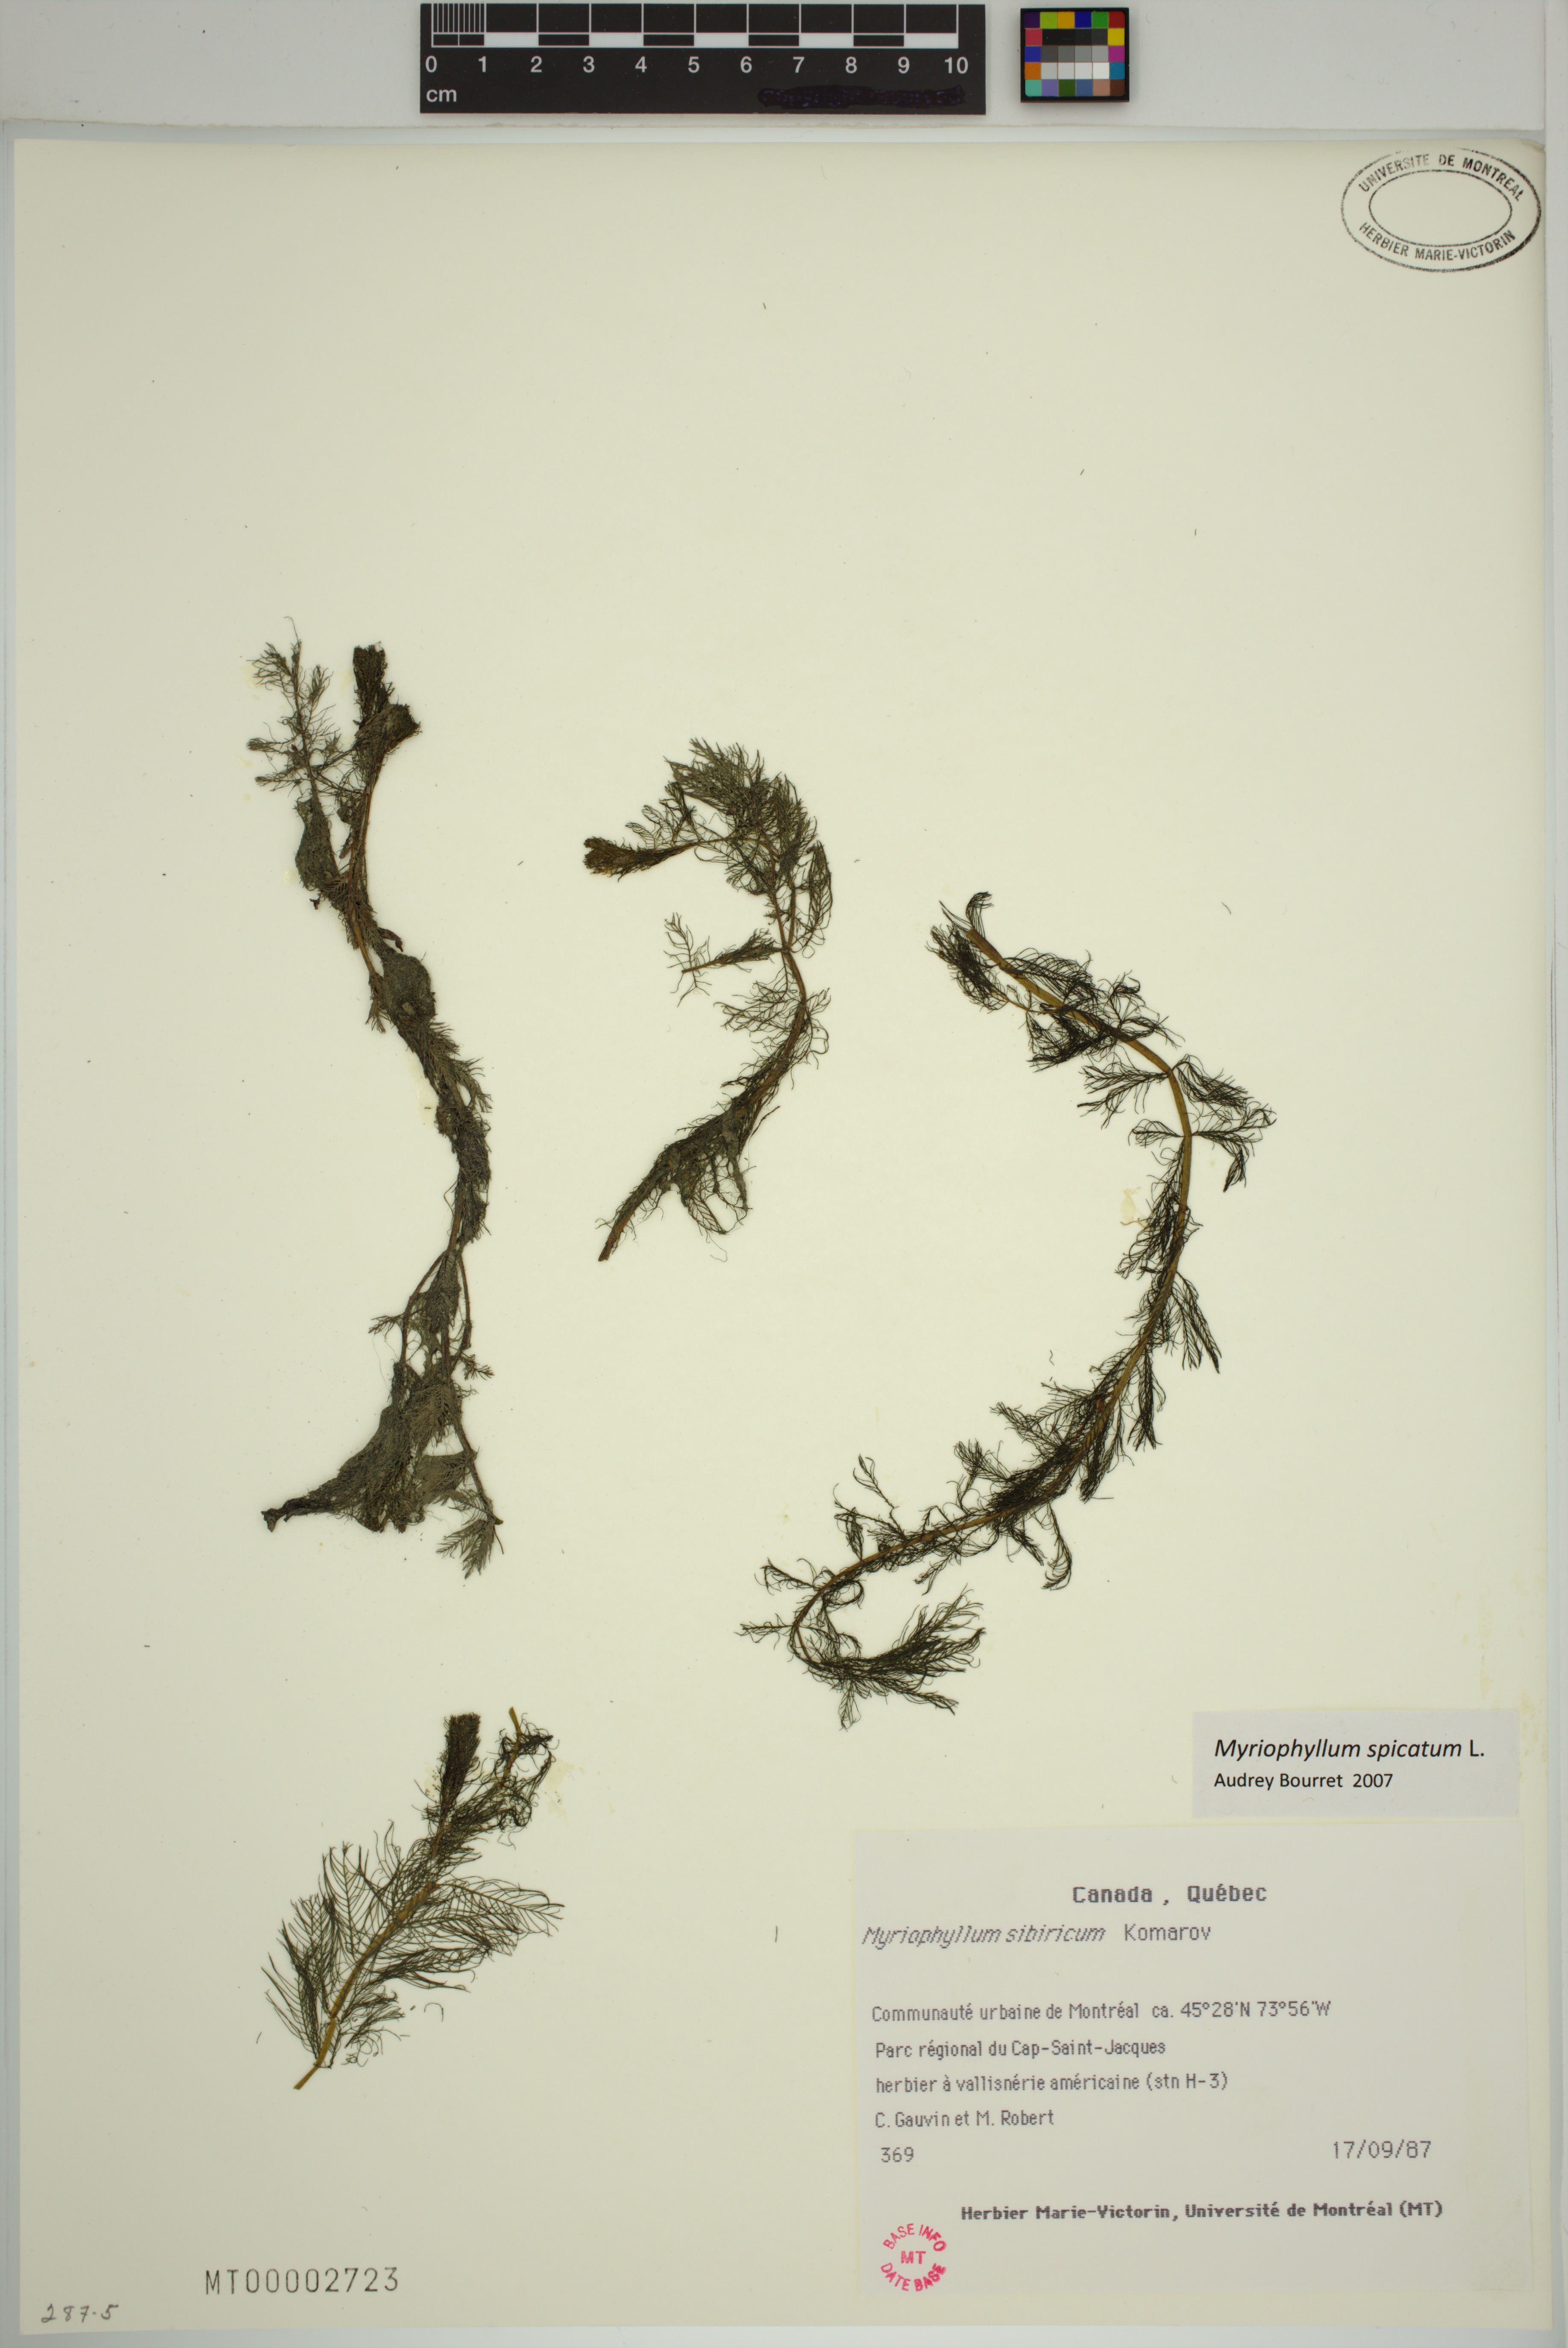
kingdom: Plantae
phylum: Tracheophyta
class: Magnoliopsida
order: Saxifragales
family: Haloragaceae
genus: Myriophyllum
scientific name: Myriophyllum spicatum
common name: Spiked water-milfoil
